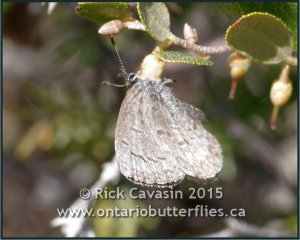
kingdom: Animalia
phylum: Arthropoda
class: Insecta
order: Lepidoptera
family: Lycaenidae
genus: Celastrina
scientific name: Celastrina lucia
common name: Northern Spring Azure
